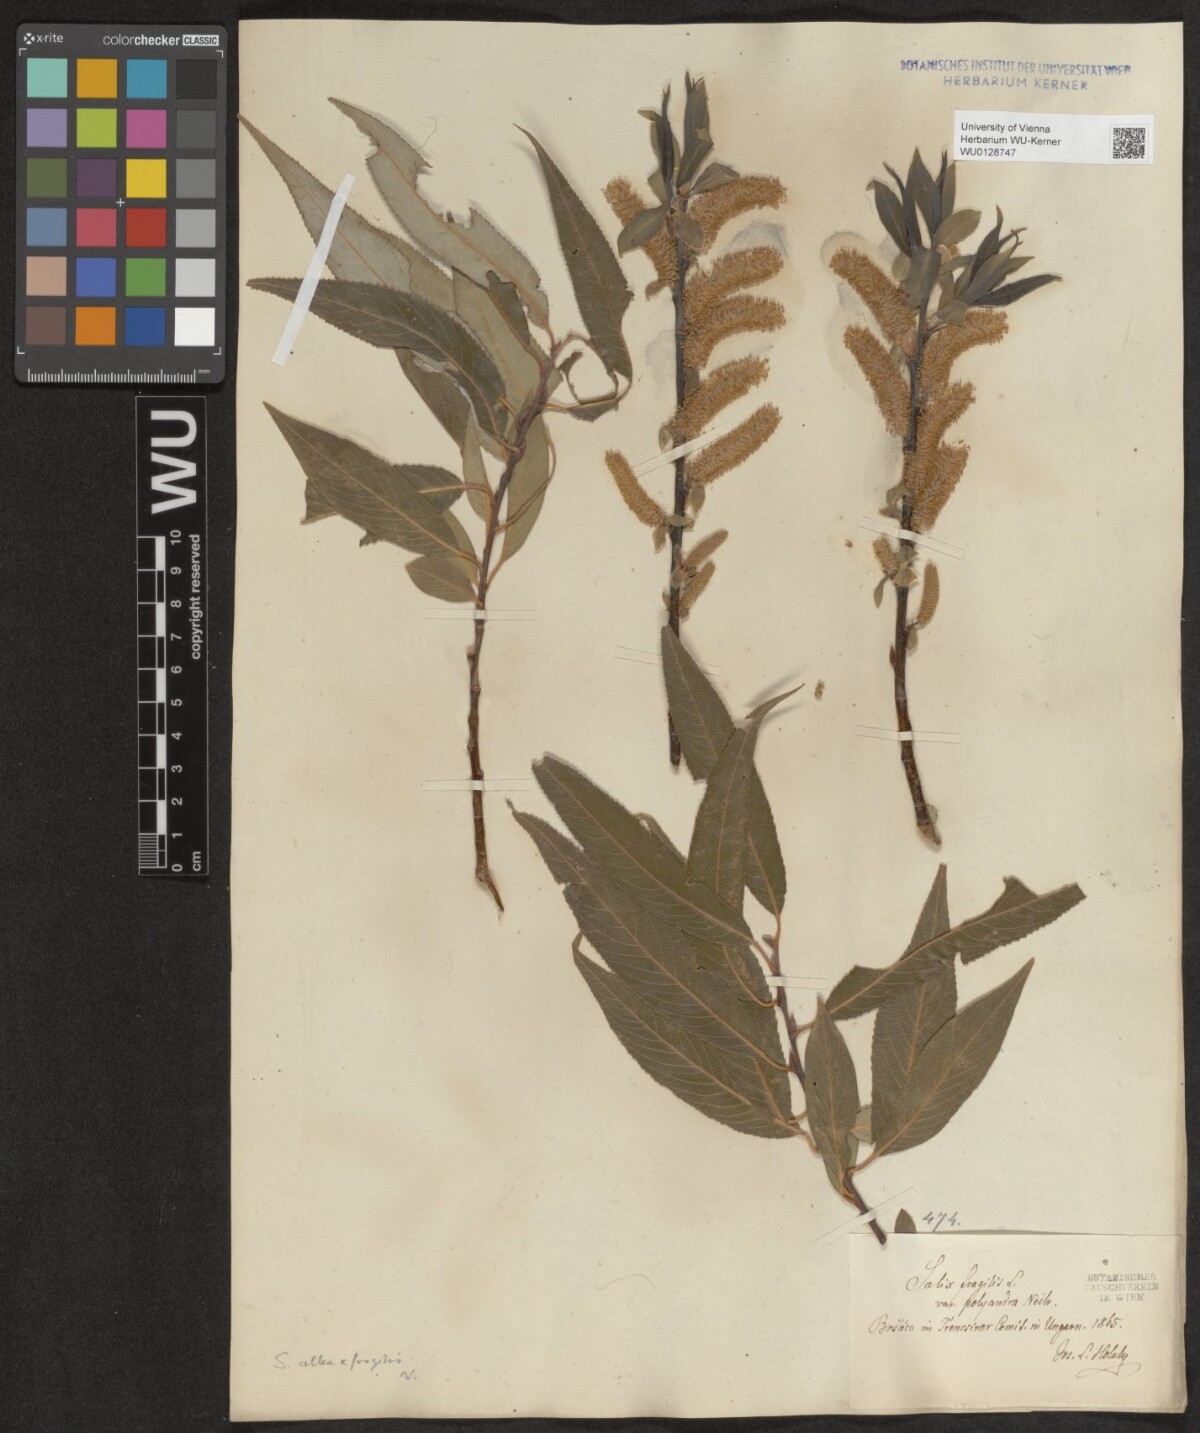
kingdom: Plantae
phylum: Tracheophyta
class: Magnoliopsida
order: Malpighiales
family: Salicaceae
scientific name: Salicaceae
